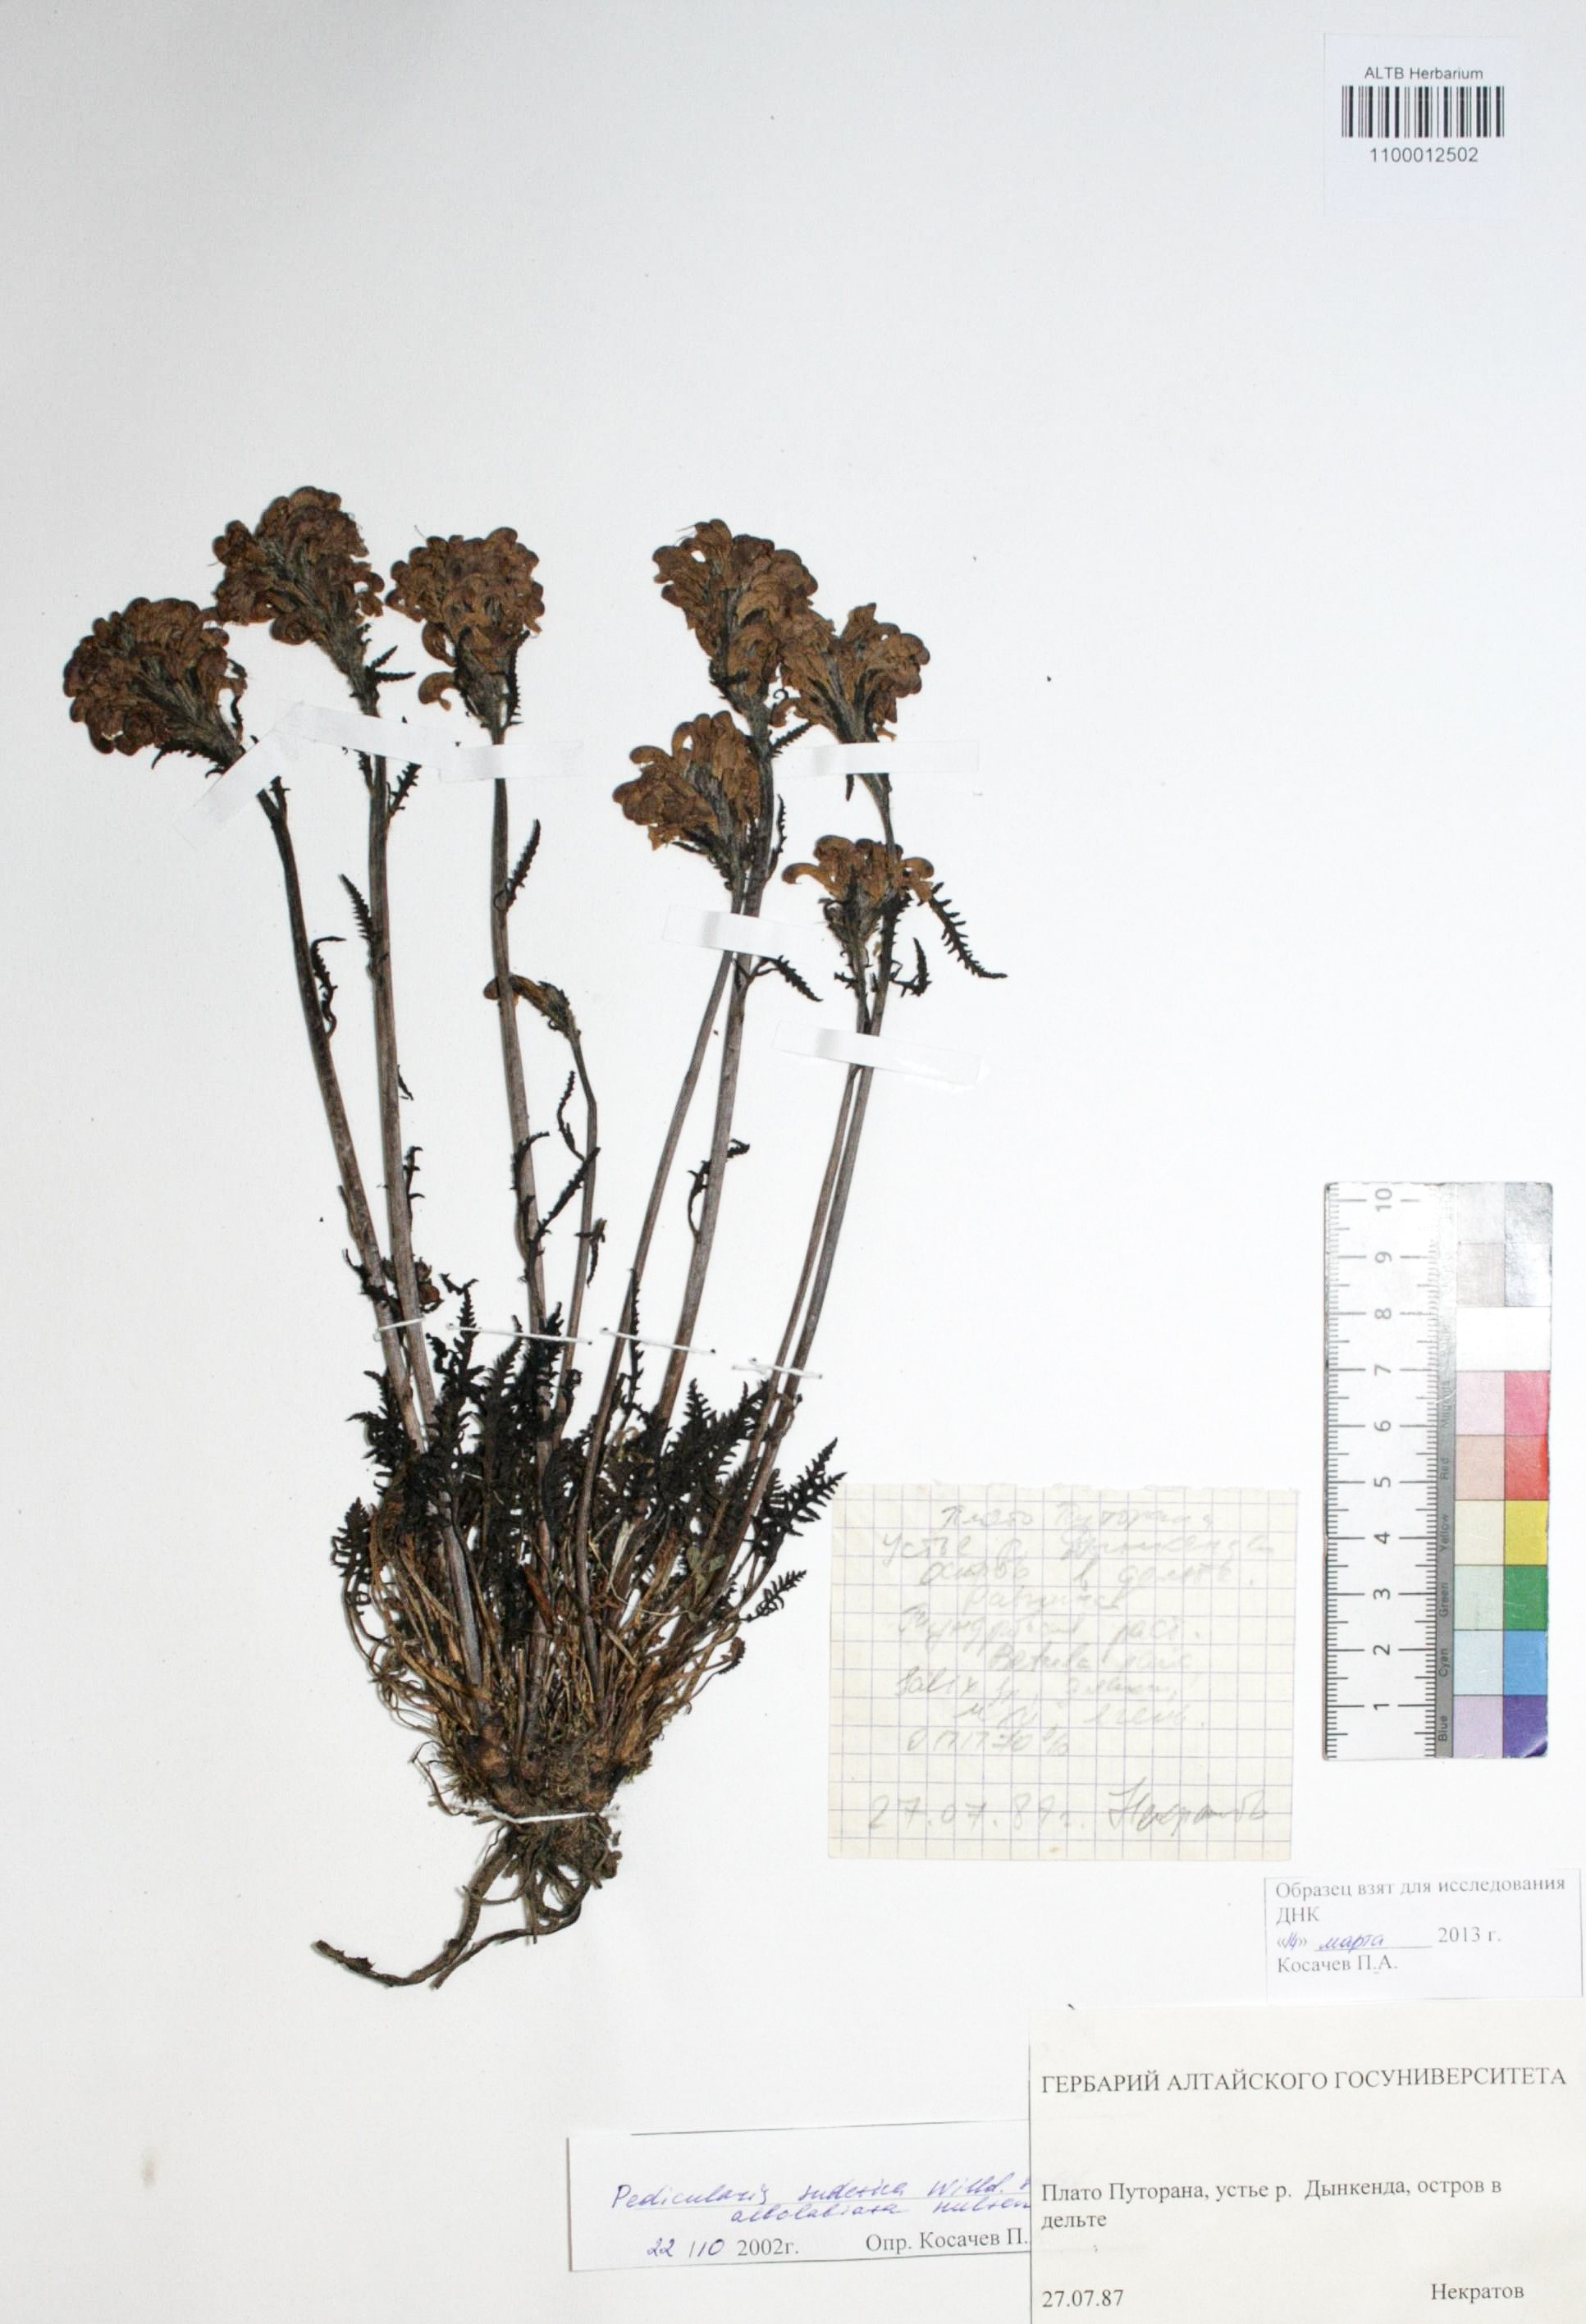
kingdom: Plantae
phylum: Tracheophyta
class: Magnoliopsida
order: Lamiales
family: Orobanchaceae
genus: Pedicularis
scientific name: Pedicularis novaiae-zemliae
